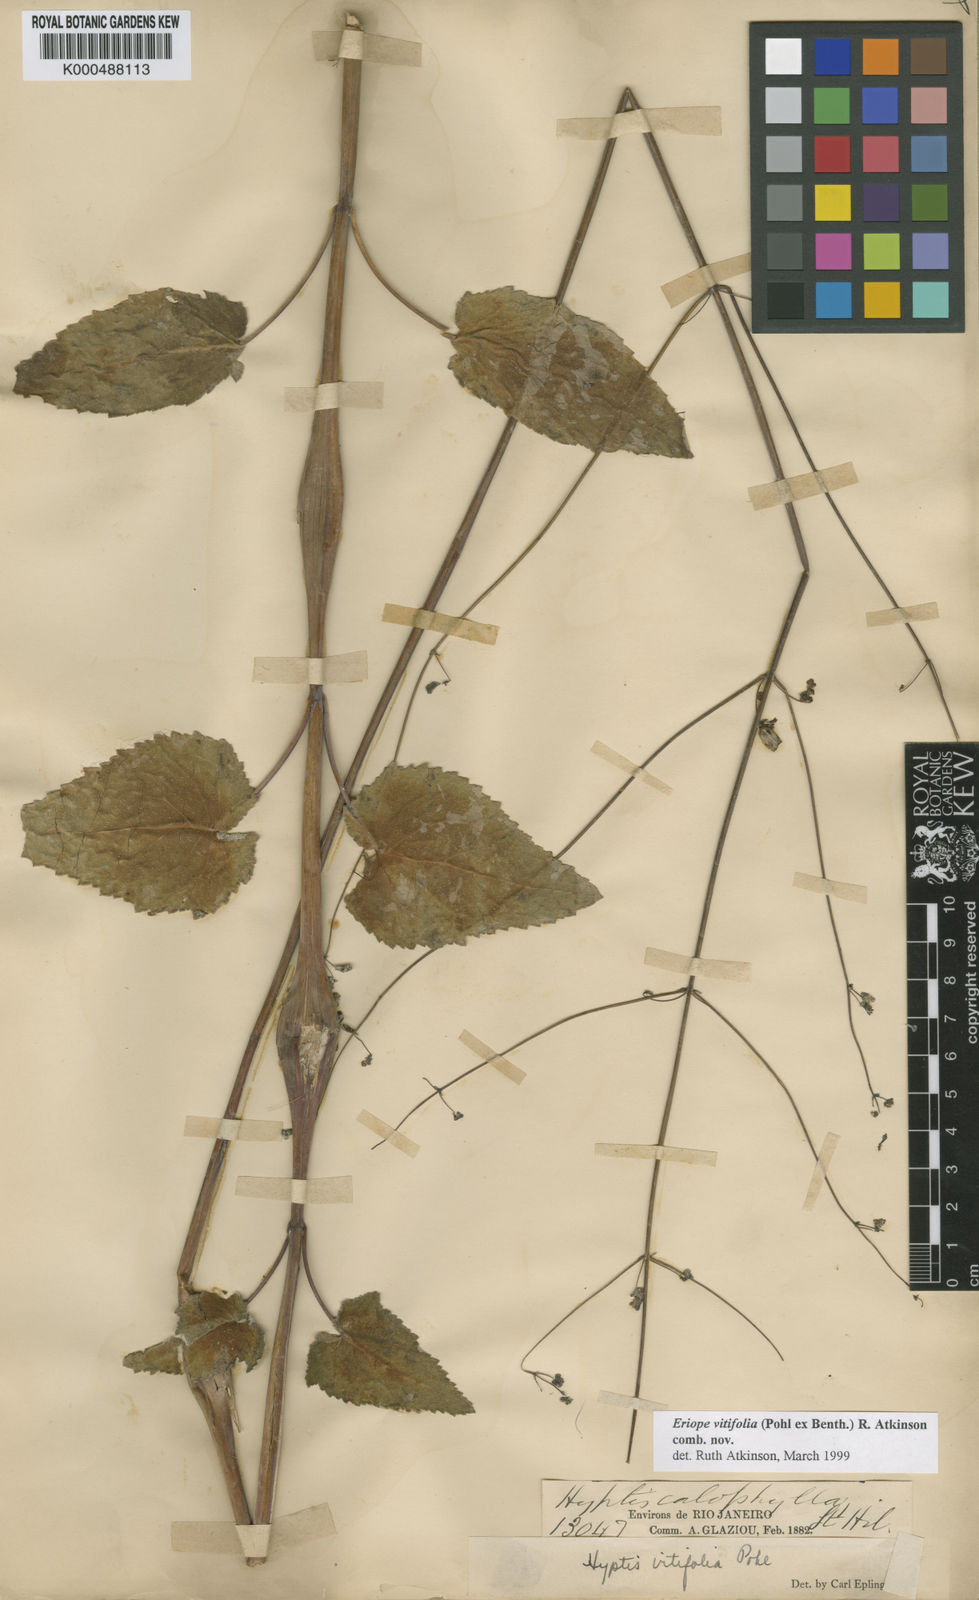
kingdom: Plantae
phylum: Tracheophyta
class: Magnoliopsida
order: Lamiales
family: Lamiaceae
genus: Eriope
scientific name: Eriope
